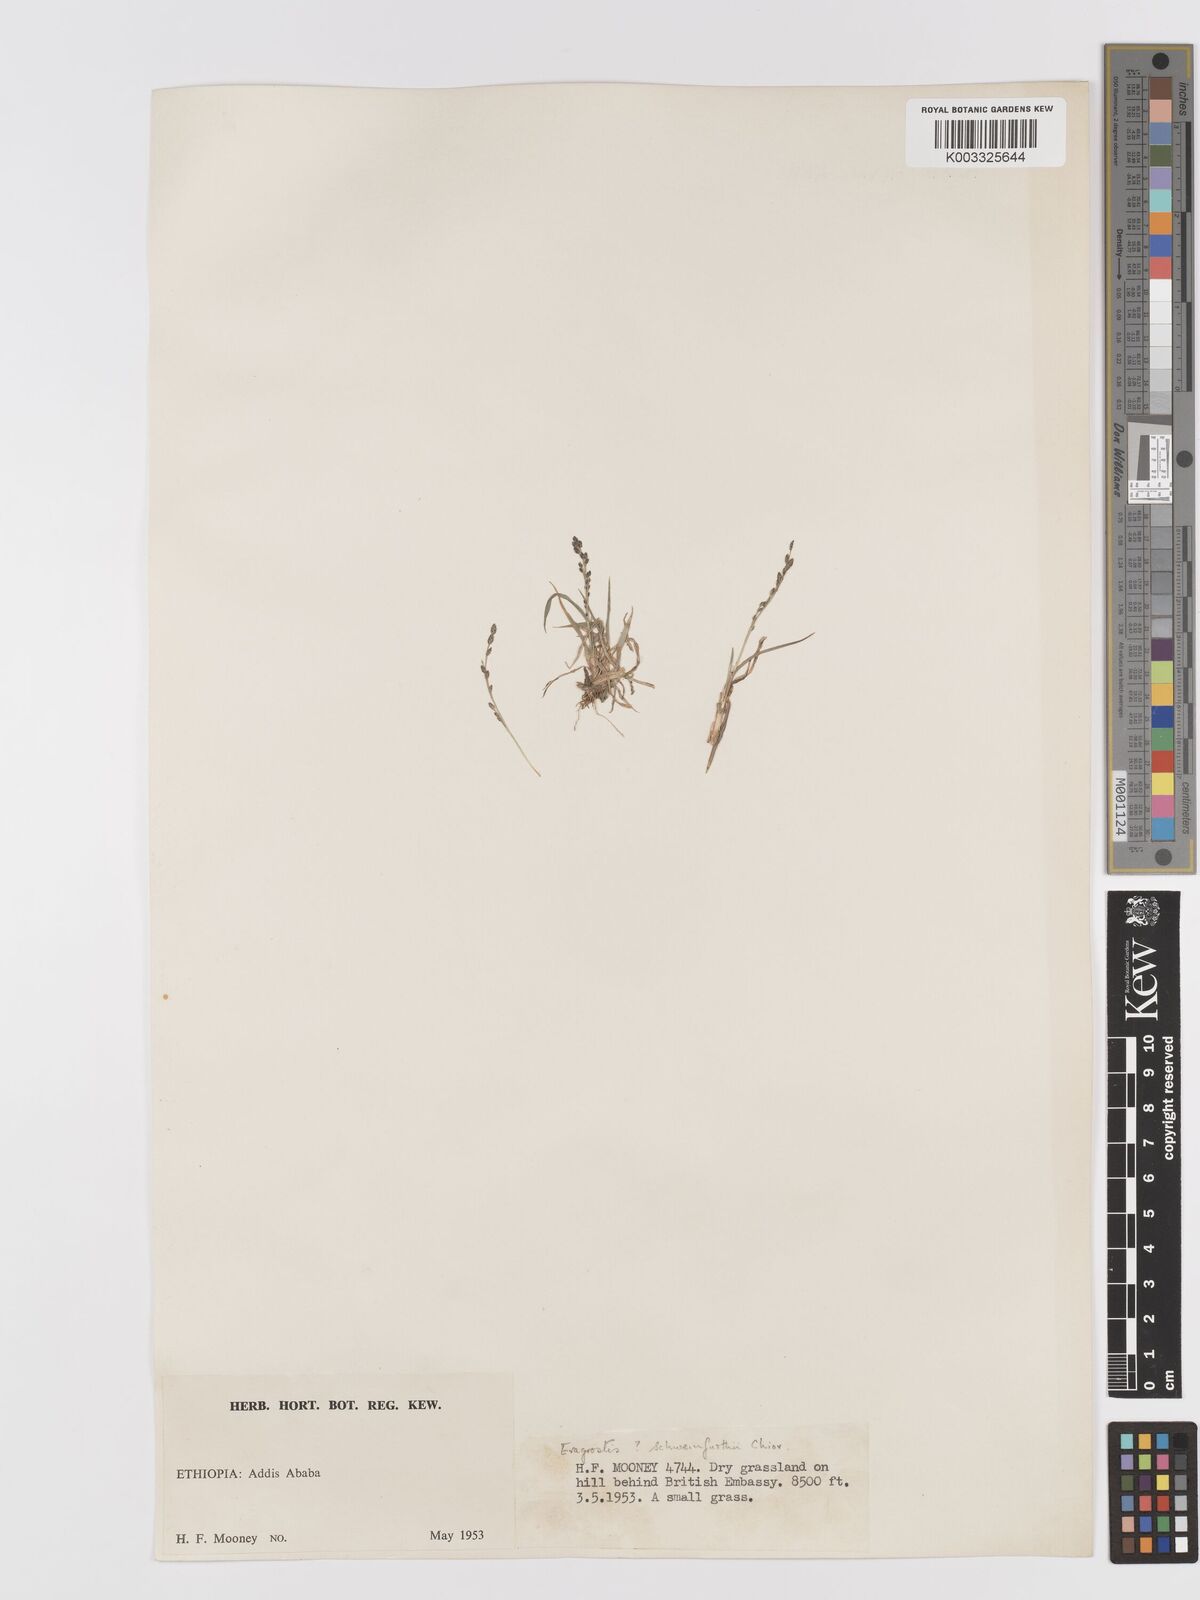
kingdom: Plantae
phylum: Tracheophyta
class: Liliopsida
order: Poales
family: Poaceae
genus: Eragrostis
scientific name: Eragrostis schweinfurthii
